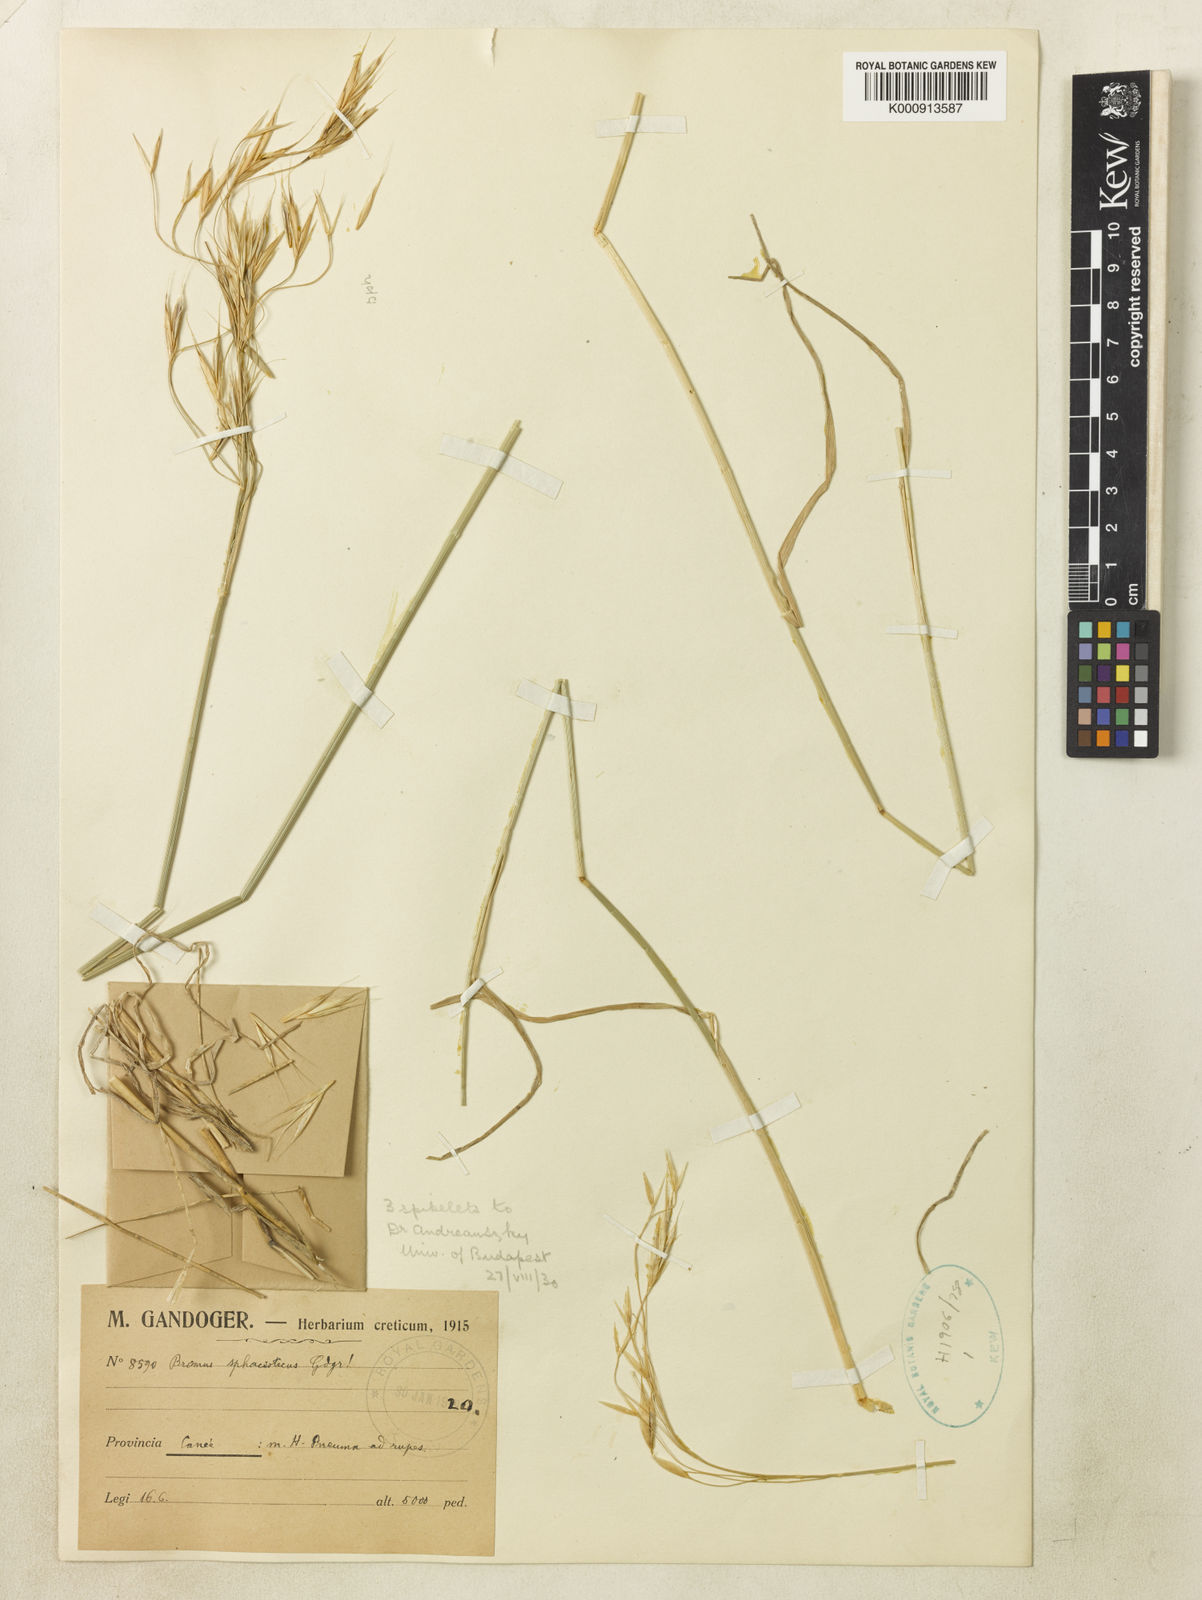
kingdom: Plantae
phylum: Tracheophyta
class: Liliopsida
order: Poales
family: Poaceae
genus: Bromus
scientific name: Bromus tomentellus
